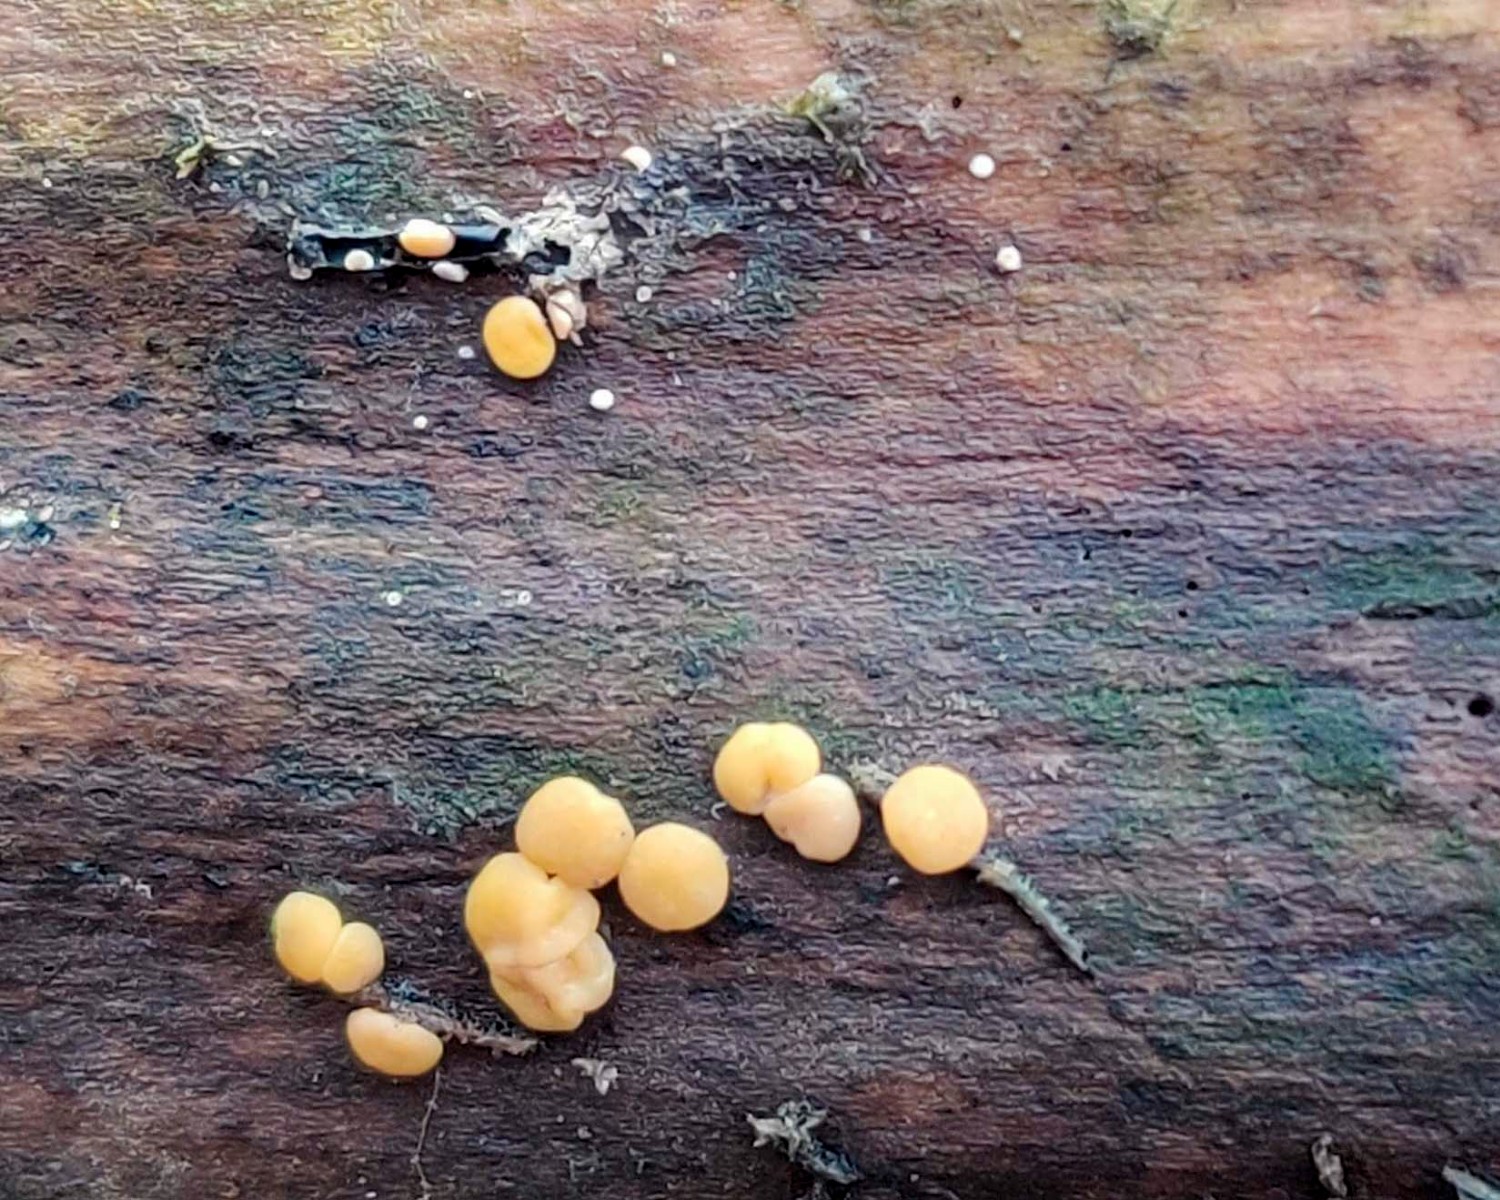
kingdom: Fungi
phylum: Ascomycota
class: Sordariomycetes
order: Hypocreales
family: Hypocreaceae
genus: Trichoderma
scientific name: Trichoderma
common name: kødkerne
